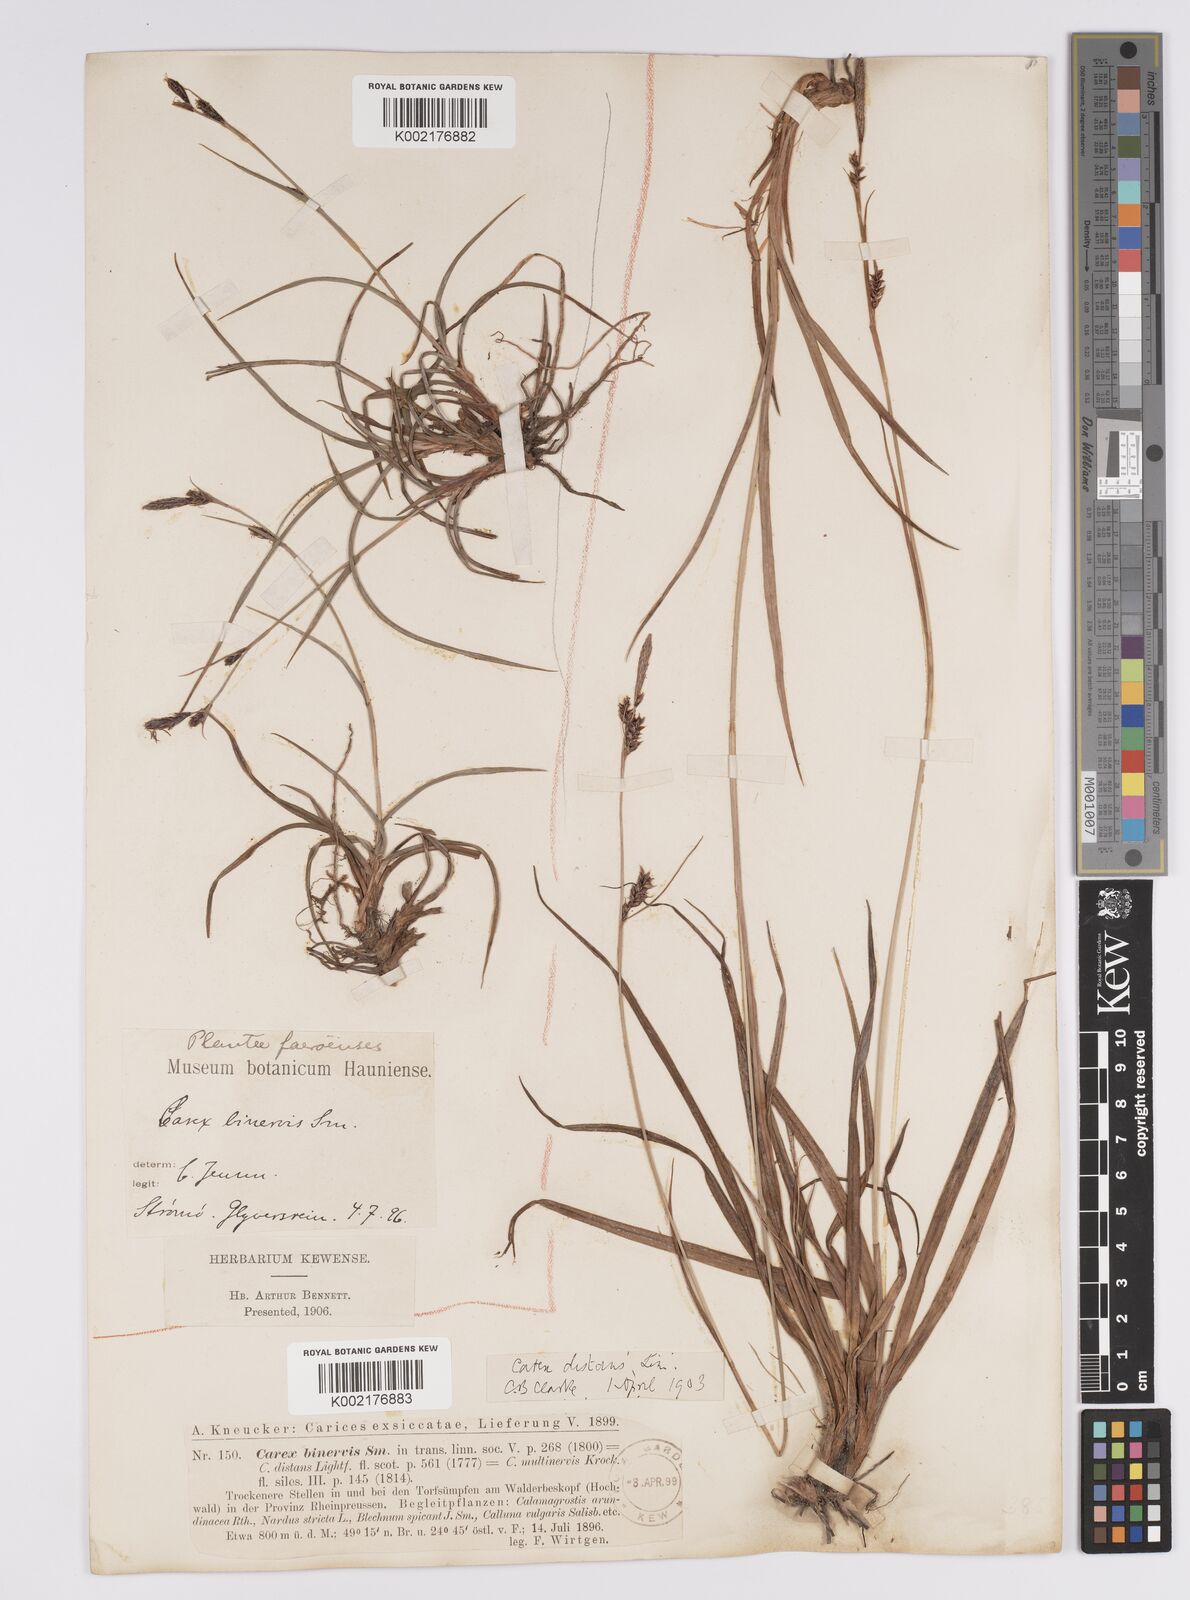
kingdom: Plantae
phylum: Tracheophyta
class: Liliopsida
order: Poales
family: Cyperaceae
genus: Carex
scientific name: Carex binervis
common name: Green-ribbed sedge
